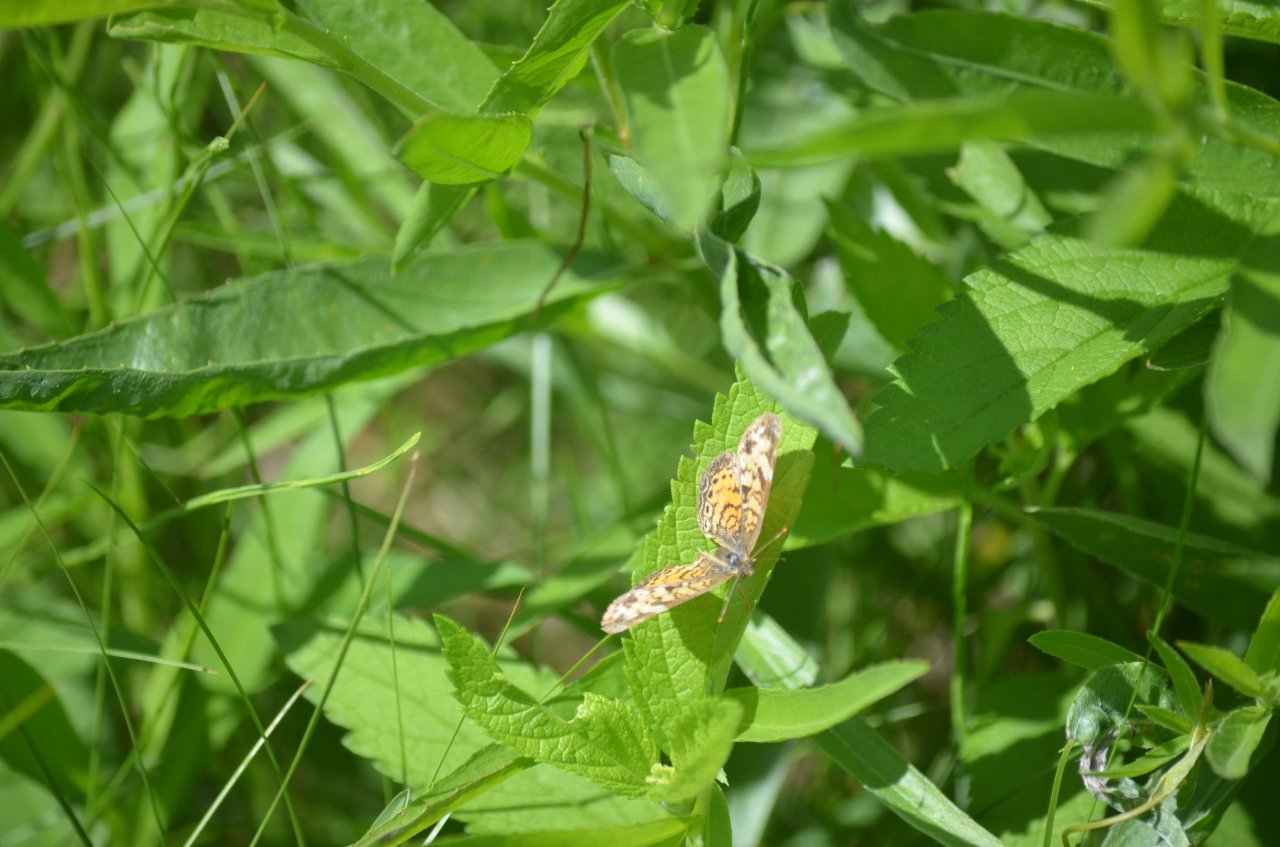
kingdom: Animalia
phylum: Arthropoda
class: Insecta
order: Lepidoptera
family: Nymphalidae
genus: Phyciodes
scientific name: Phyciodes tharos
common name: Northern Crescent
